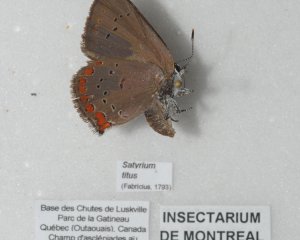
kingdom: Animalia
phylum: Arthropoda
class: Insecta
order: Lepidoptera
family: Lycaenidae
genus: Harkenclenus
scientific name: Harkenclenus titus
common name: Coral Hairstreak
